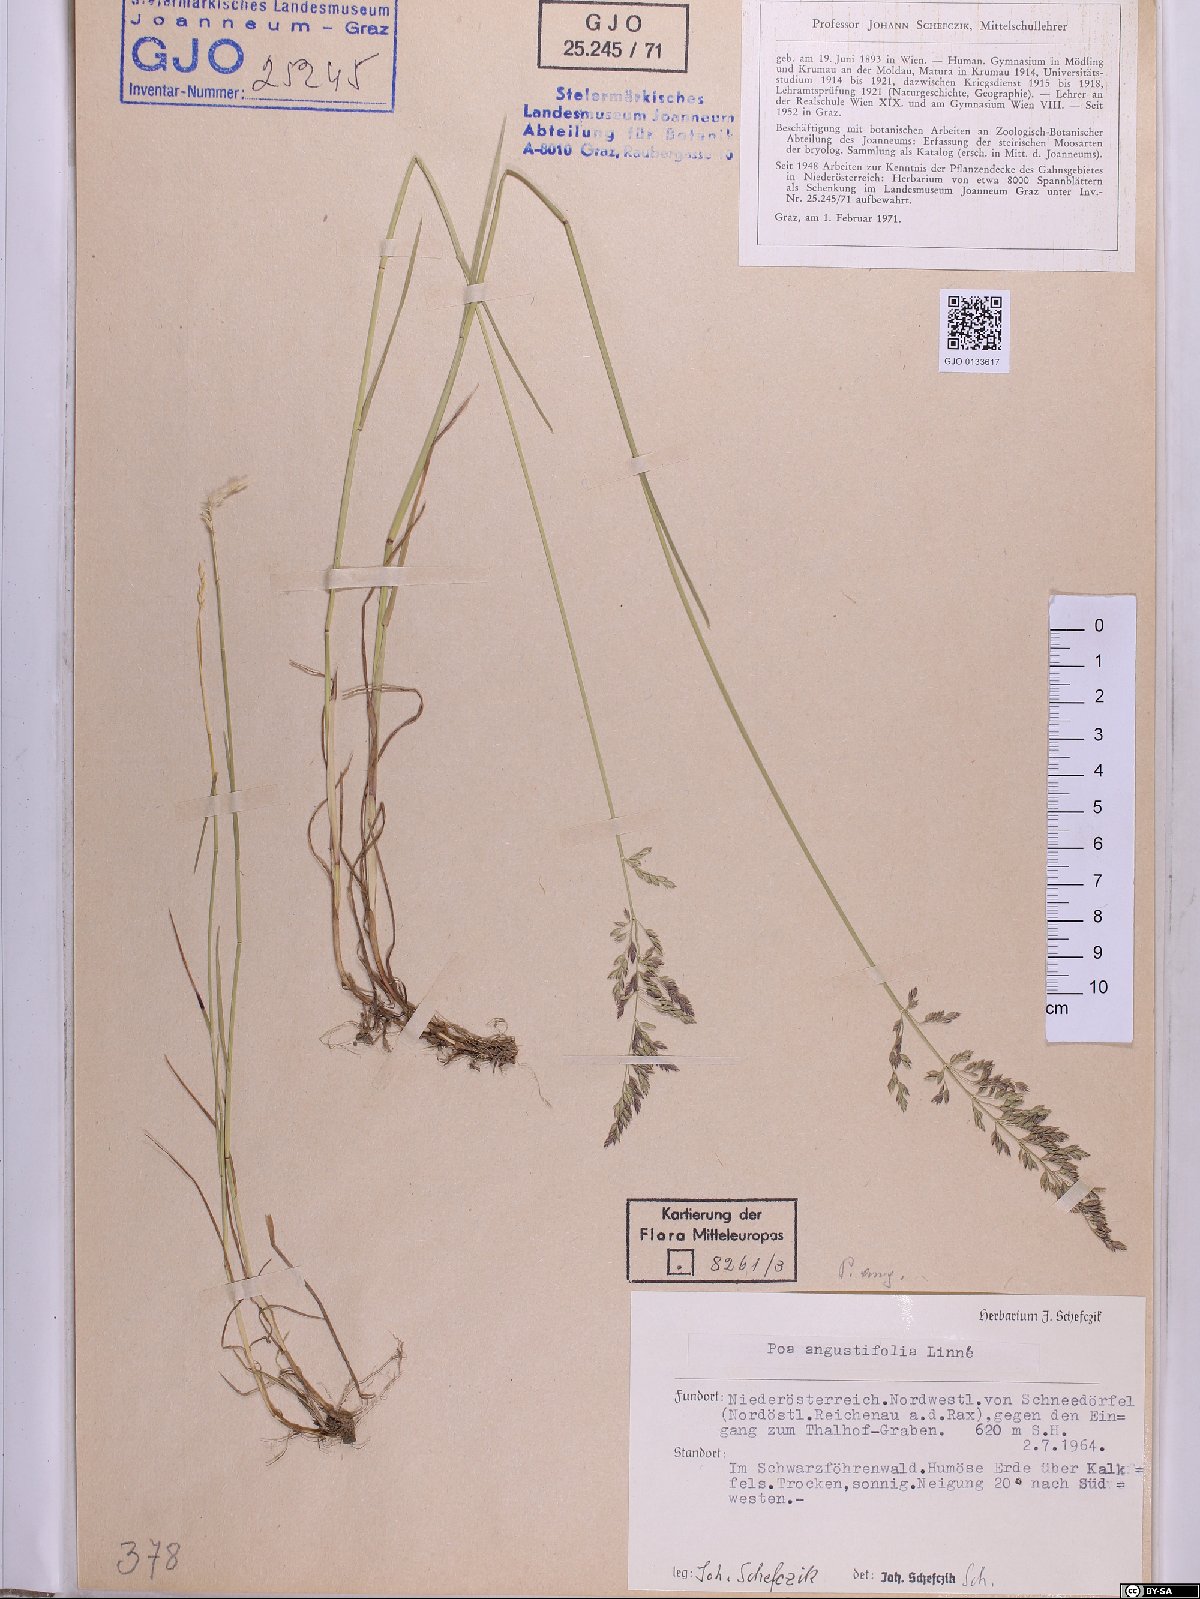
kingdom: Plantae
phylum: Tracheophyta
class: Liliopsida
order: Poales
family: Poaceae
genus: Poa
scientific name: Poa angustifolia
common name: Narrow-leaved meadow-grass
